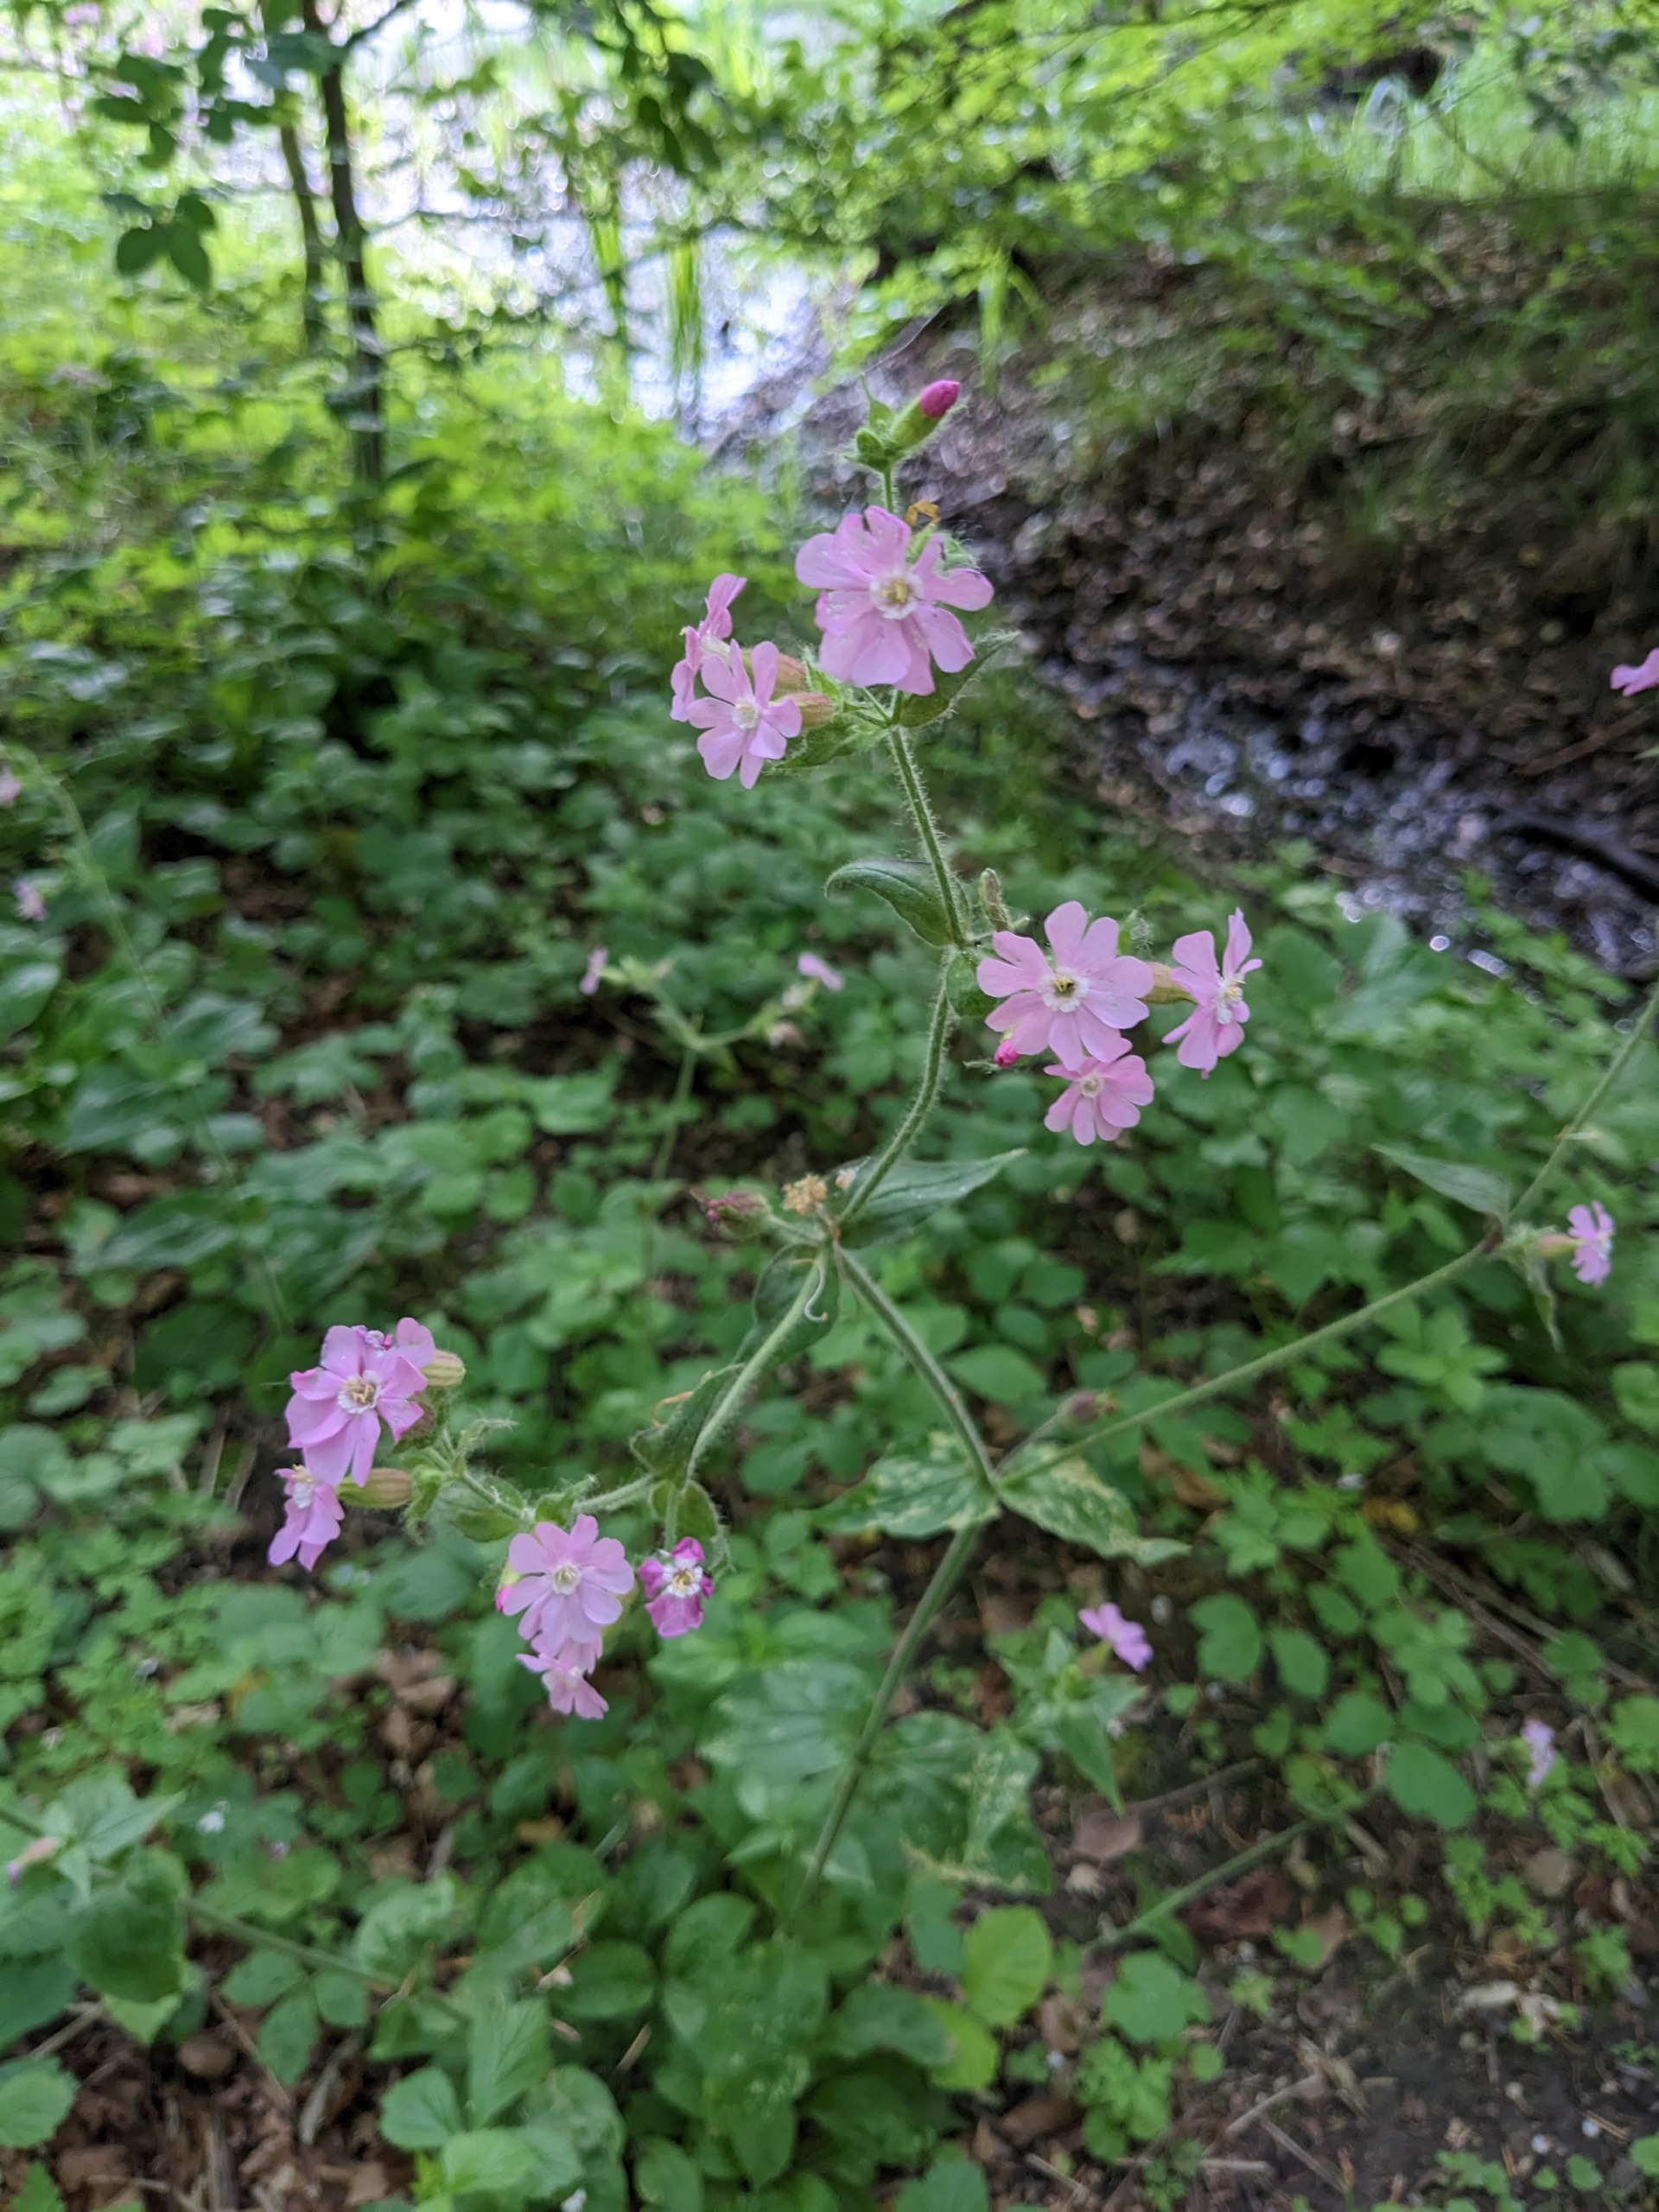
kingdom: Plantae
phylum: Tracheophyta
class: Magnoliopsida
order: Caryophyllales
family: Caryophyllaceae
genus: Silene
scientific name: Silene dioica
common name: Dagpragtstjerne
